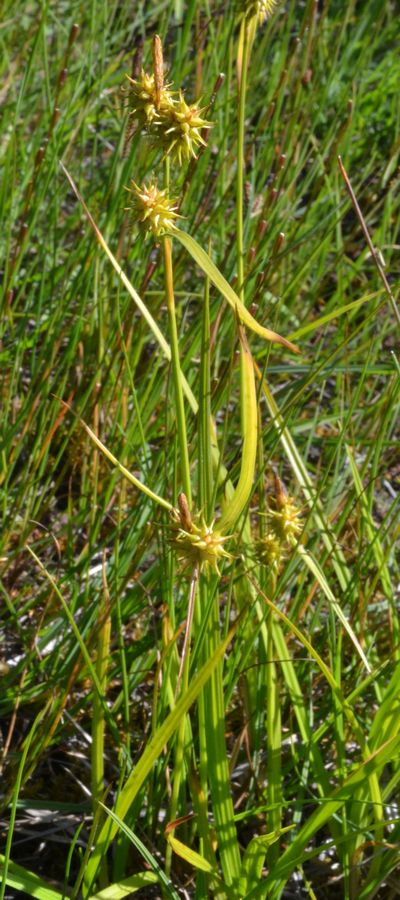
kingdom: Plantae
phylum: Tracheophyta
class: Liliopsida
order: Poales
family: Cyperaceae
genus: Carex
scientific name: Carex flava
